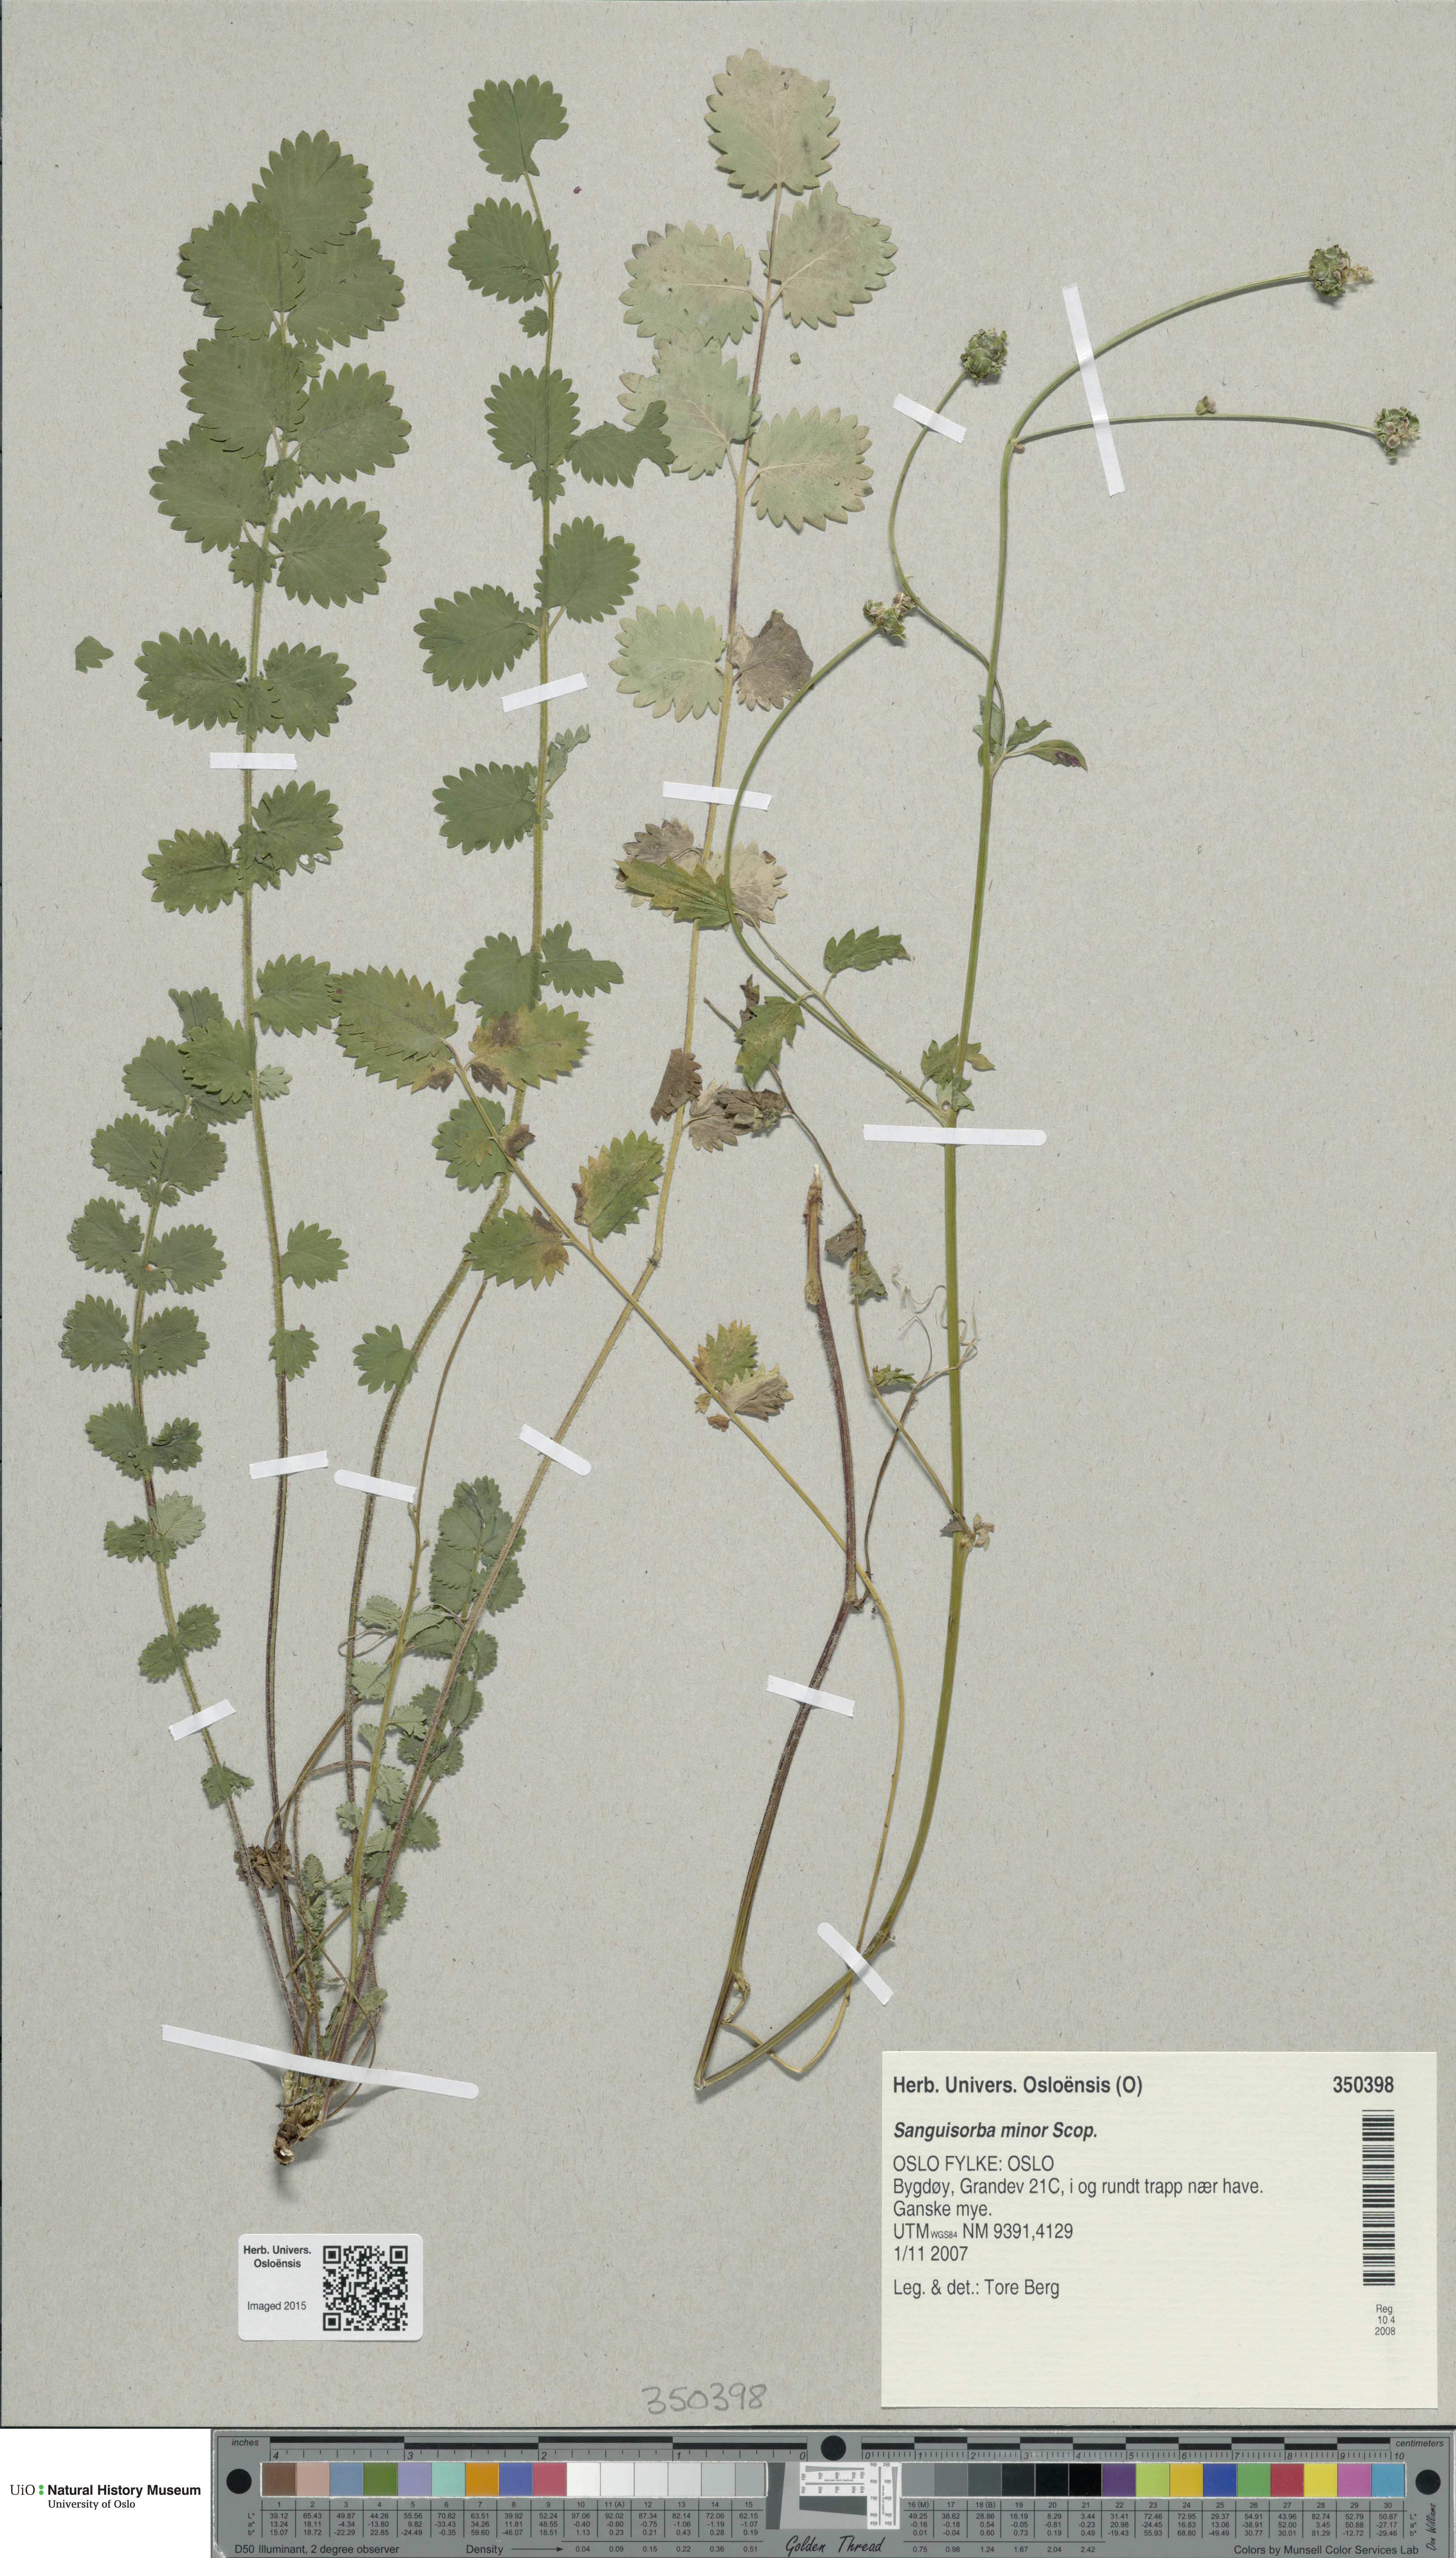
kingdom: Plantae
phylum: Tracheophyta
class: Magnoliopsida
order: Rosales
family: Rosaceae
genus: Poterium
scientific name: Poterium sanguisorba
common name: Salad burnet
